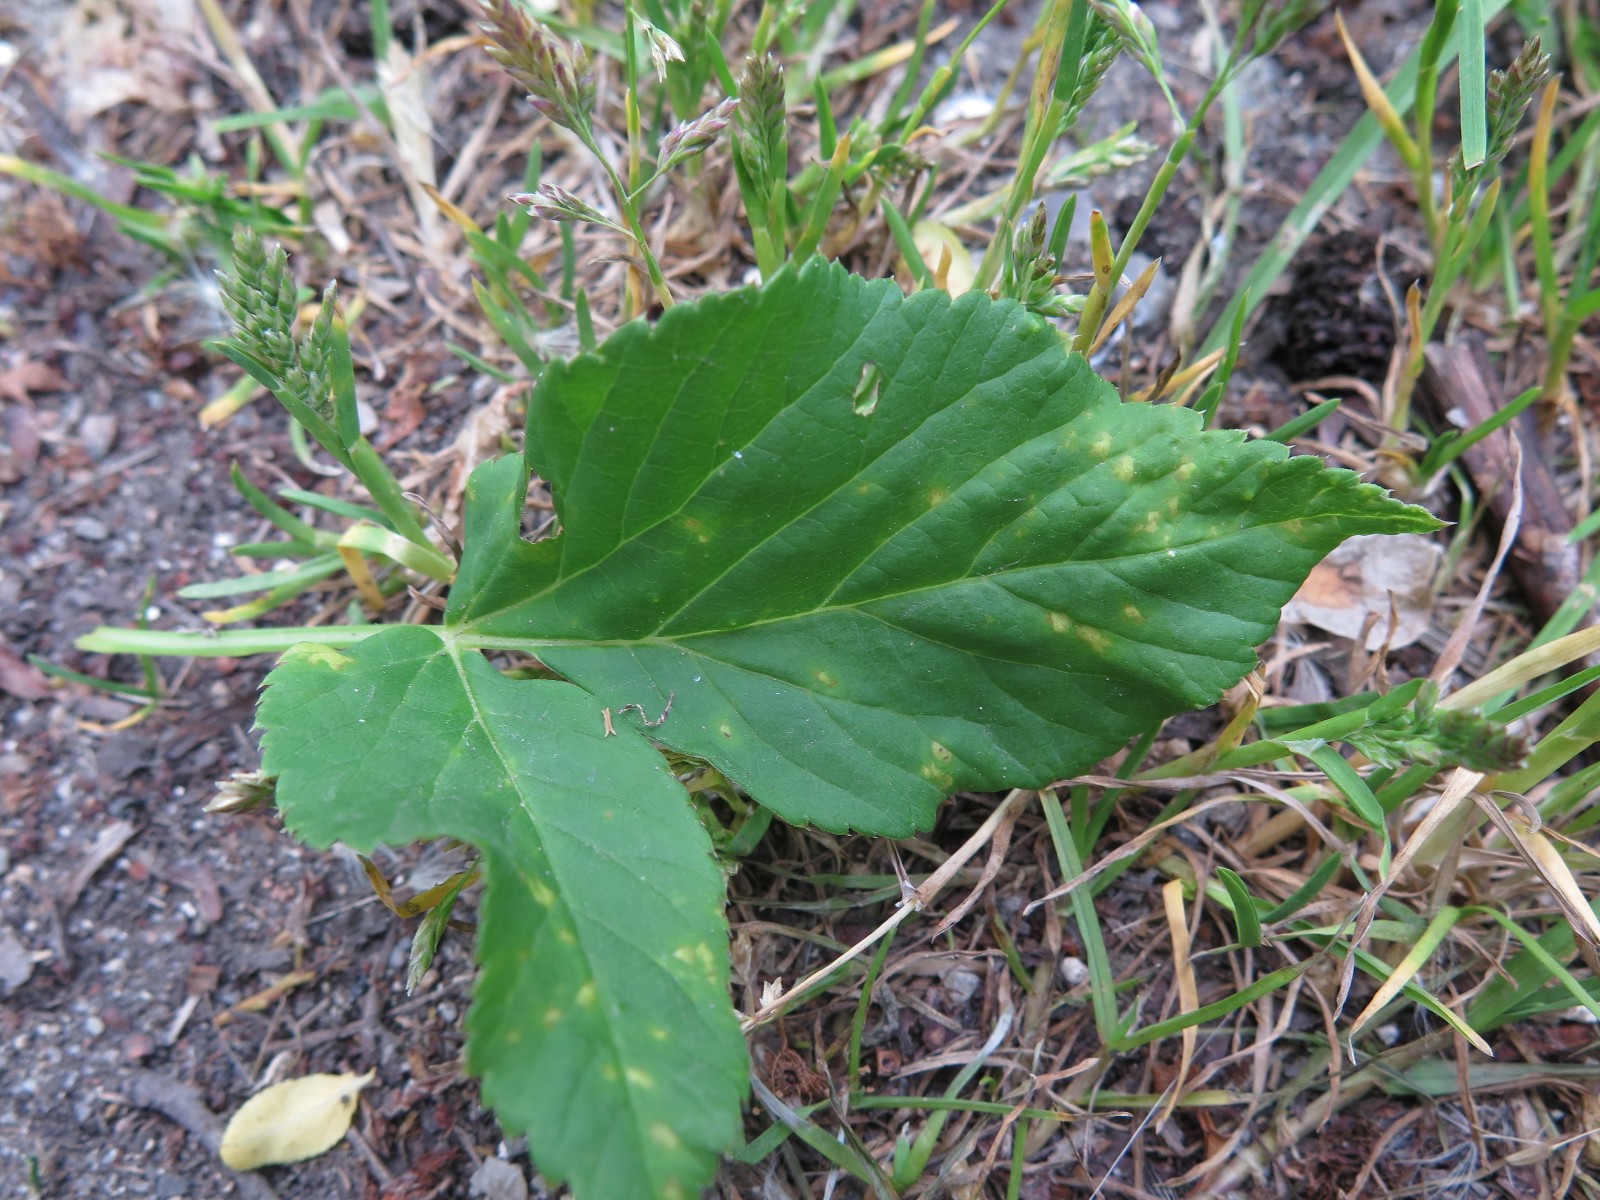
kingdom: Fungi
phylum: Basidiomycota
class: Pucciniomycetes
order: Pucciniales
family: Pucciniaceae
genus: Puccinia
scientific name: Puccinia
